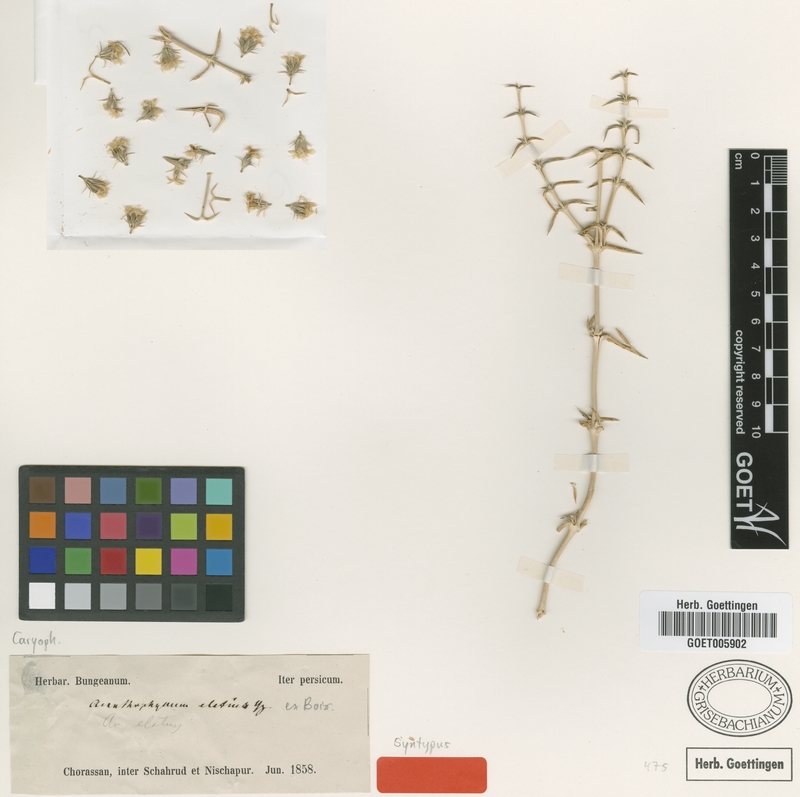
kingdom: Plantae
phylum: Tracheophyta
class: Magnoliopsida
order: Caryophyllales
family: Caryophyllaceae
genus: Acanthophyllum
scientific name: Acanthophyllum elatius
